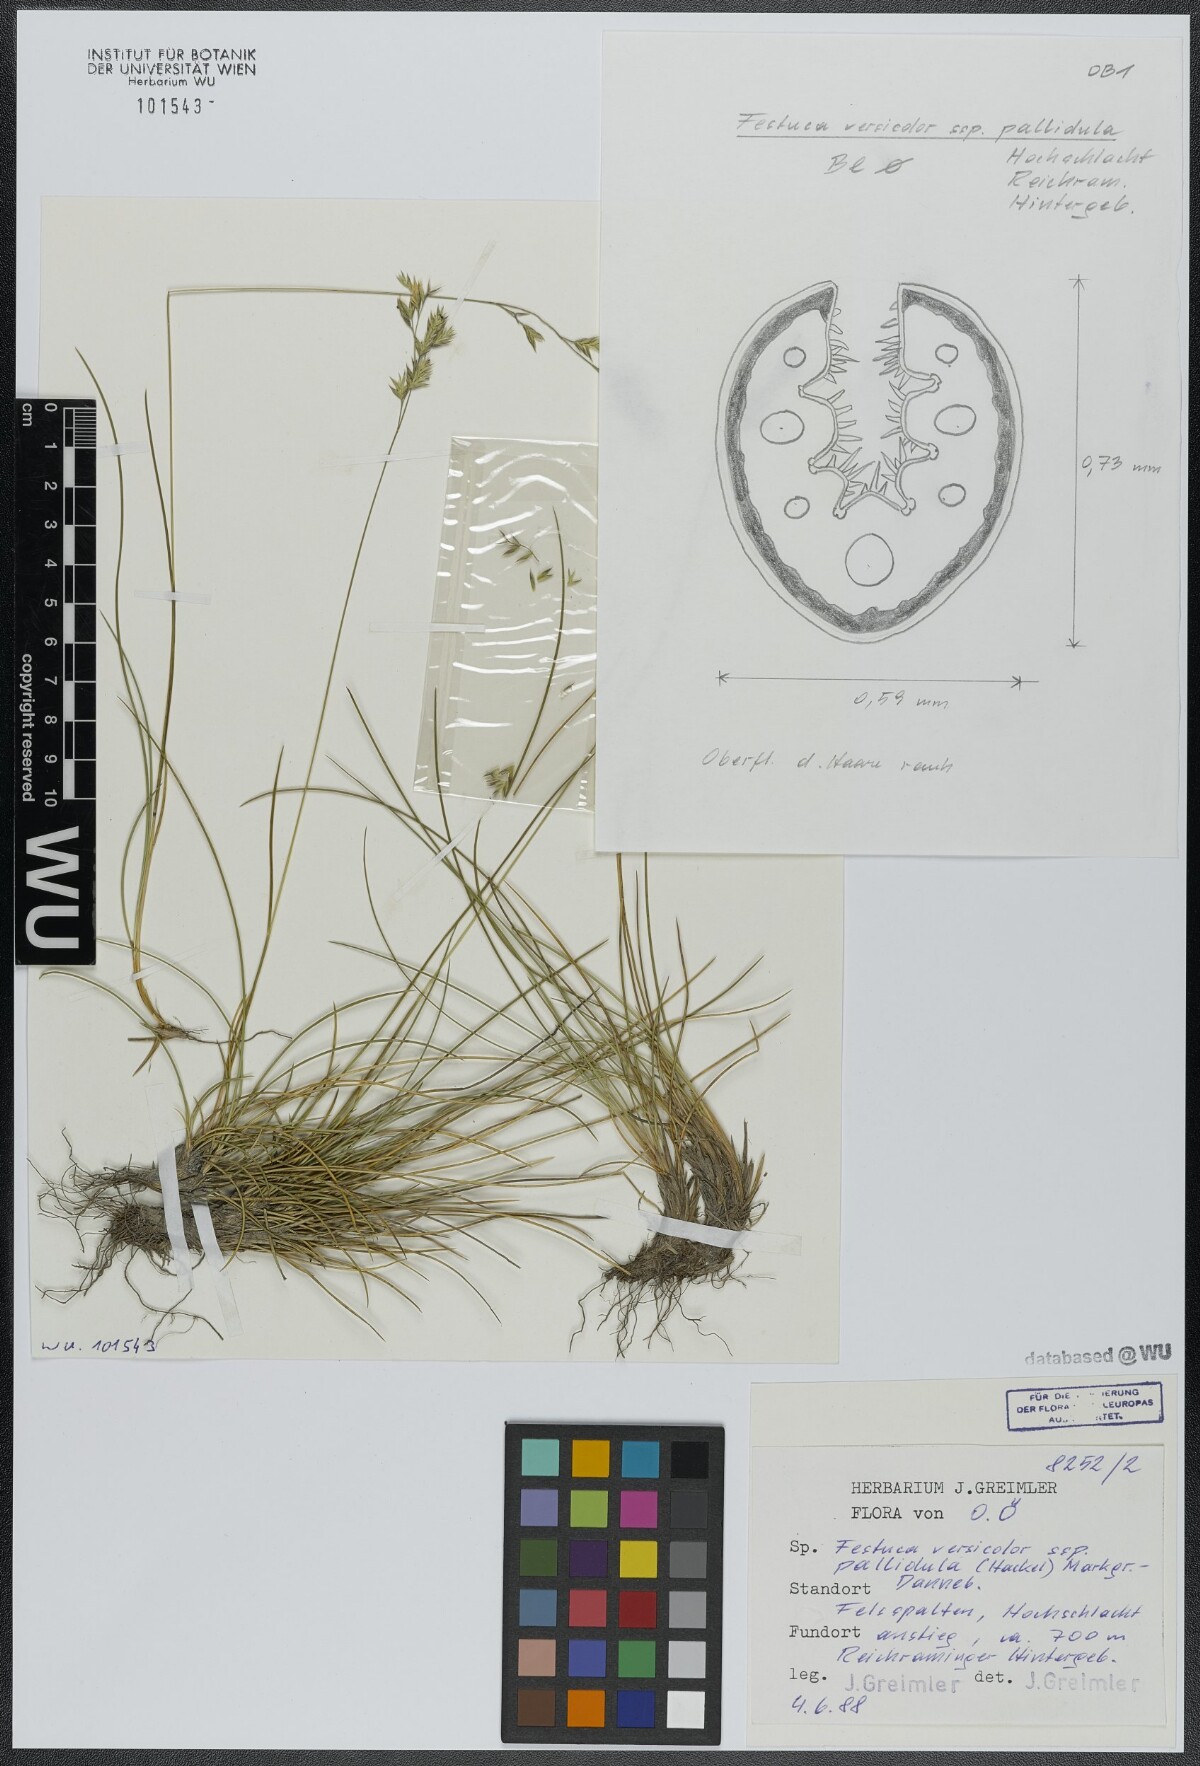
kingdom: Plantae
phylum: Tracheophyta
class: Liliopsida
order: Poales
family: Poaceae
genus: Festuca
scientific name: Festuca varia
